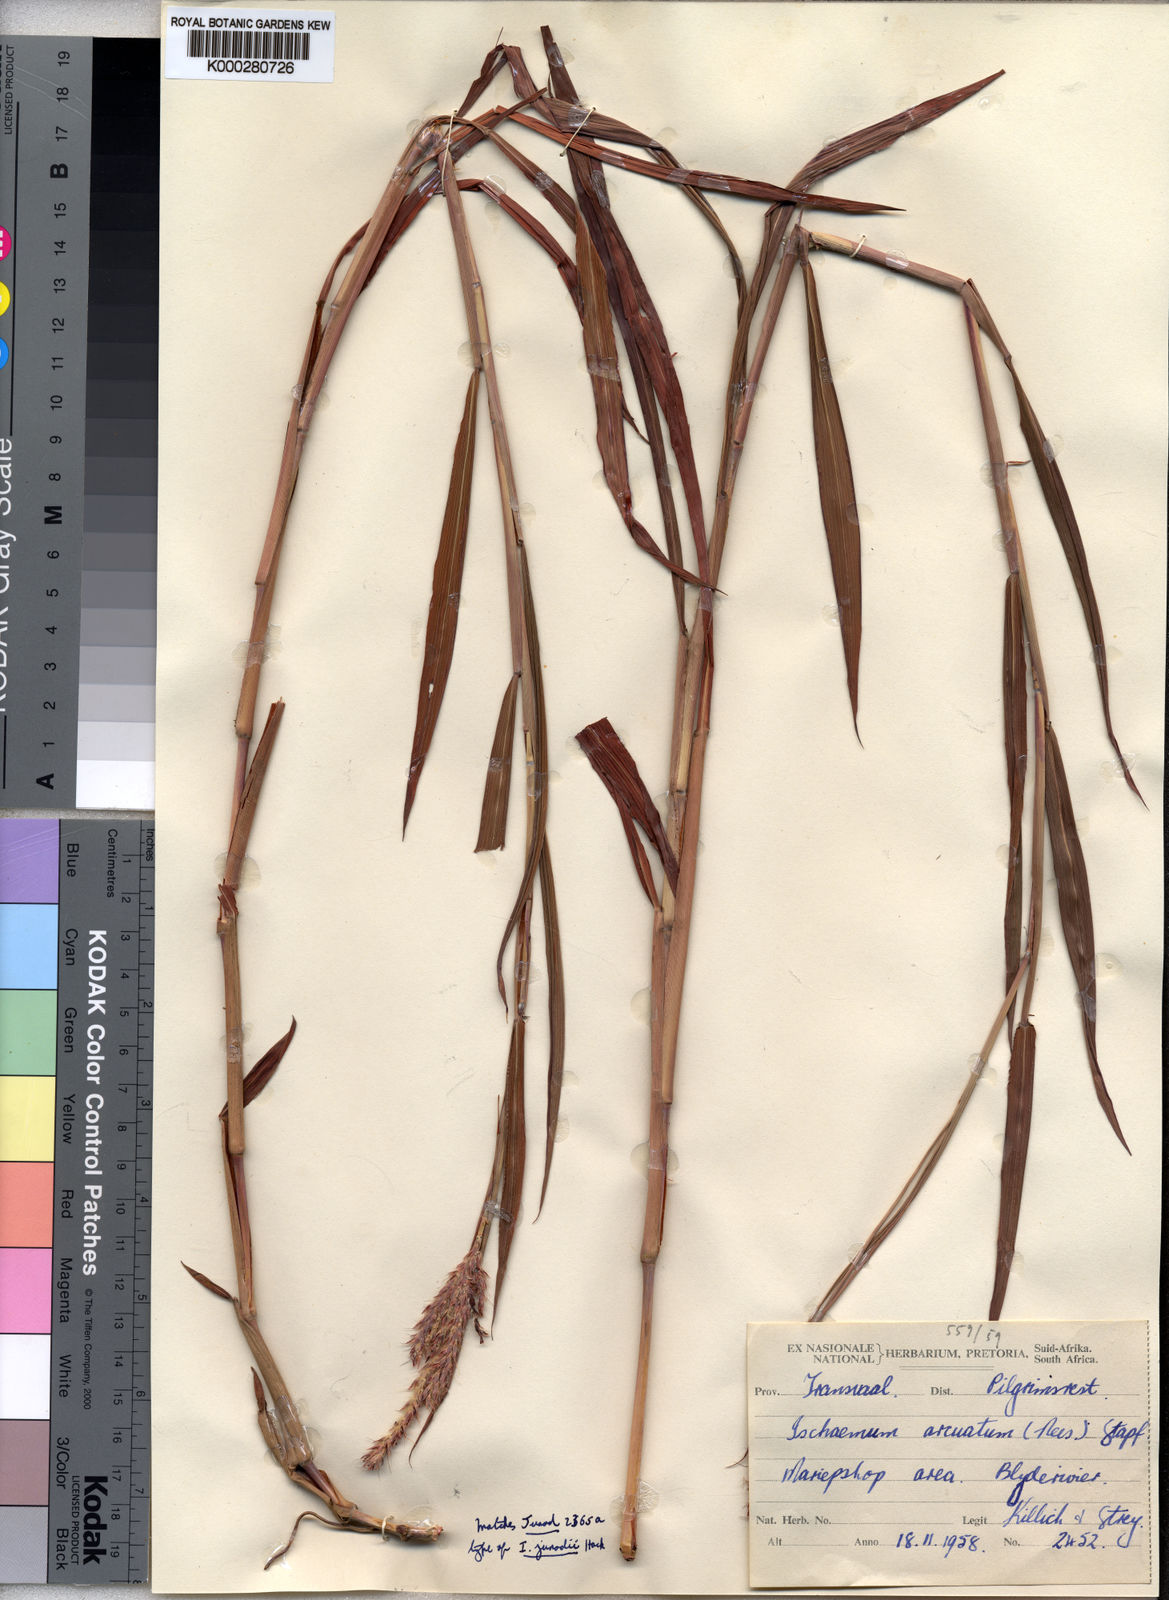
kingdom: Plantae
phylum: Tracheophyta
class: Liliopsida
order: Poales
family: Poaceae
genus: Ischaemum
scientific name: Ischaemum polystachyum
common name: Paddle grass
